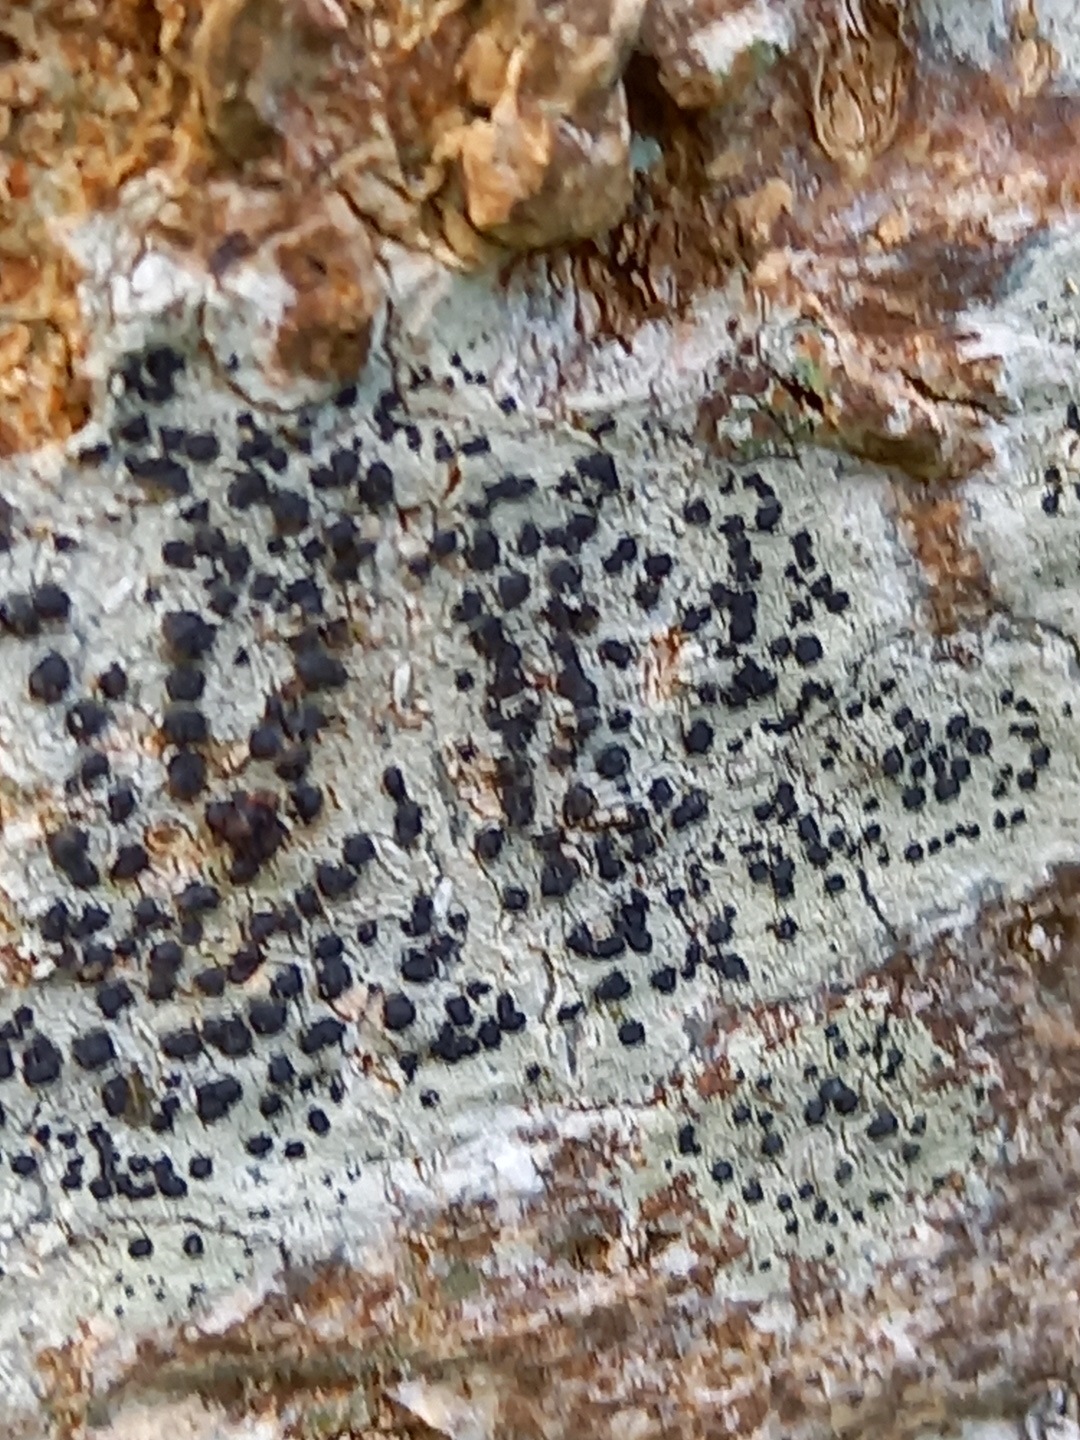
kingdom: Fungi
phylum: Ascomycota
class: Lecanoromycetes
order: Lecanorales
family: Lecanoraceae
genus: Lecidella
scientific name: Lecidella elaeochroma
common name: grågrøn skivelav
